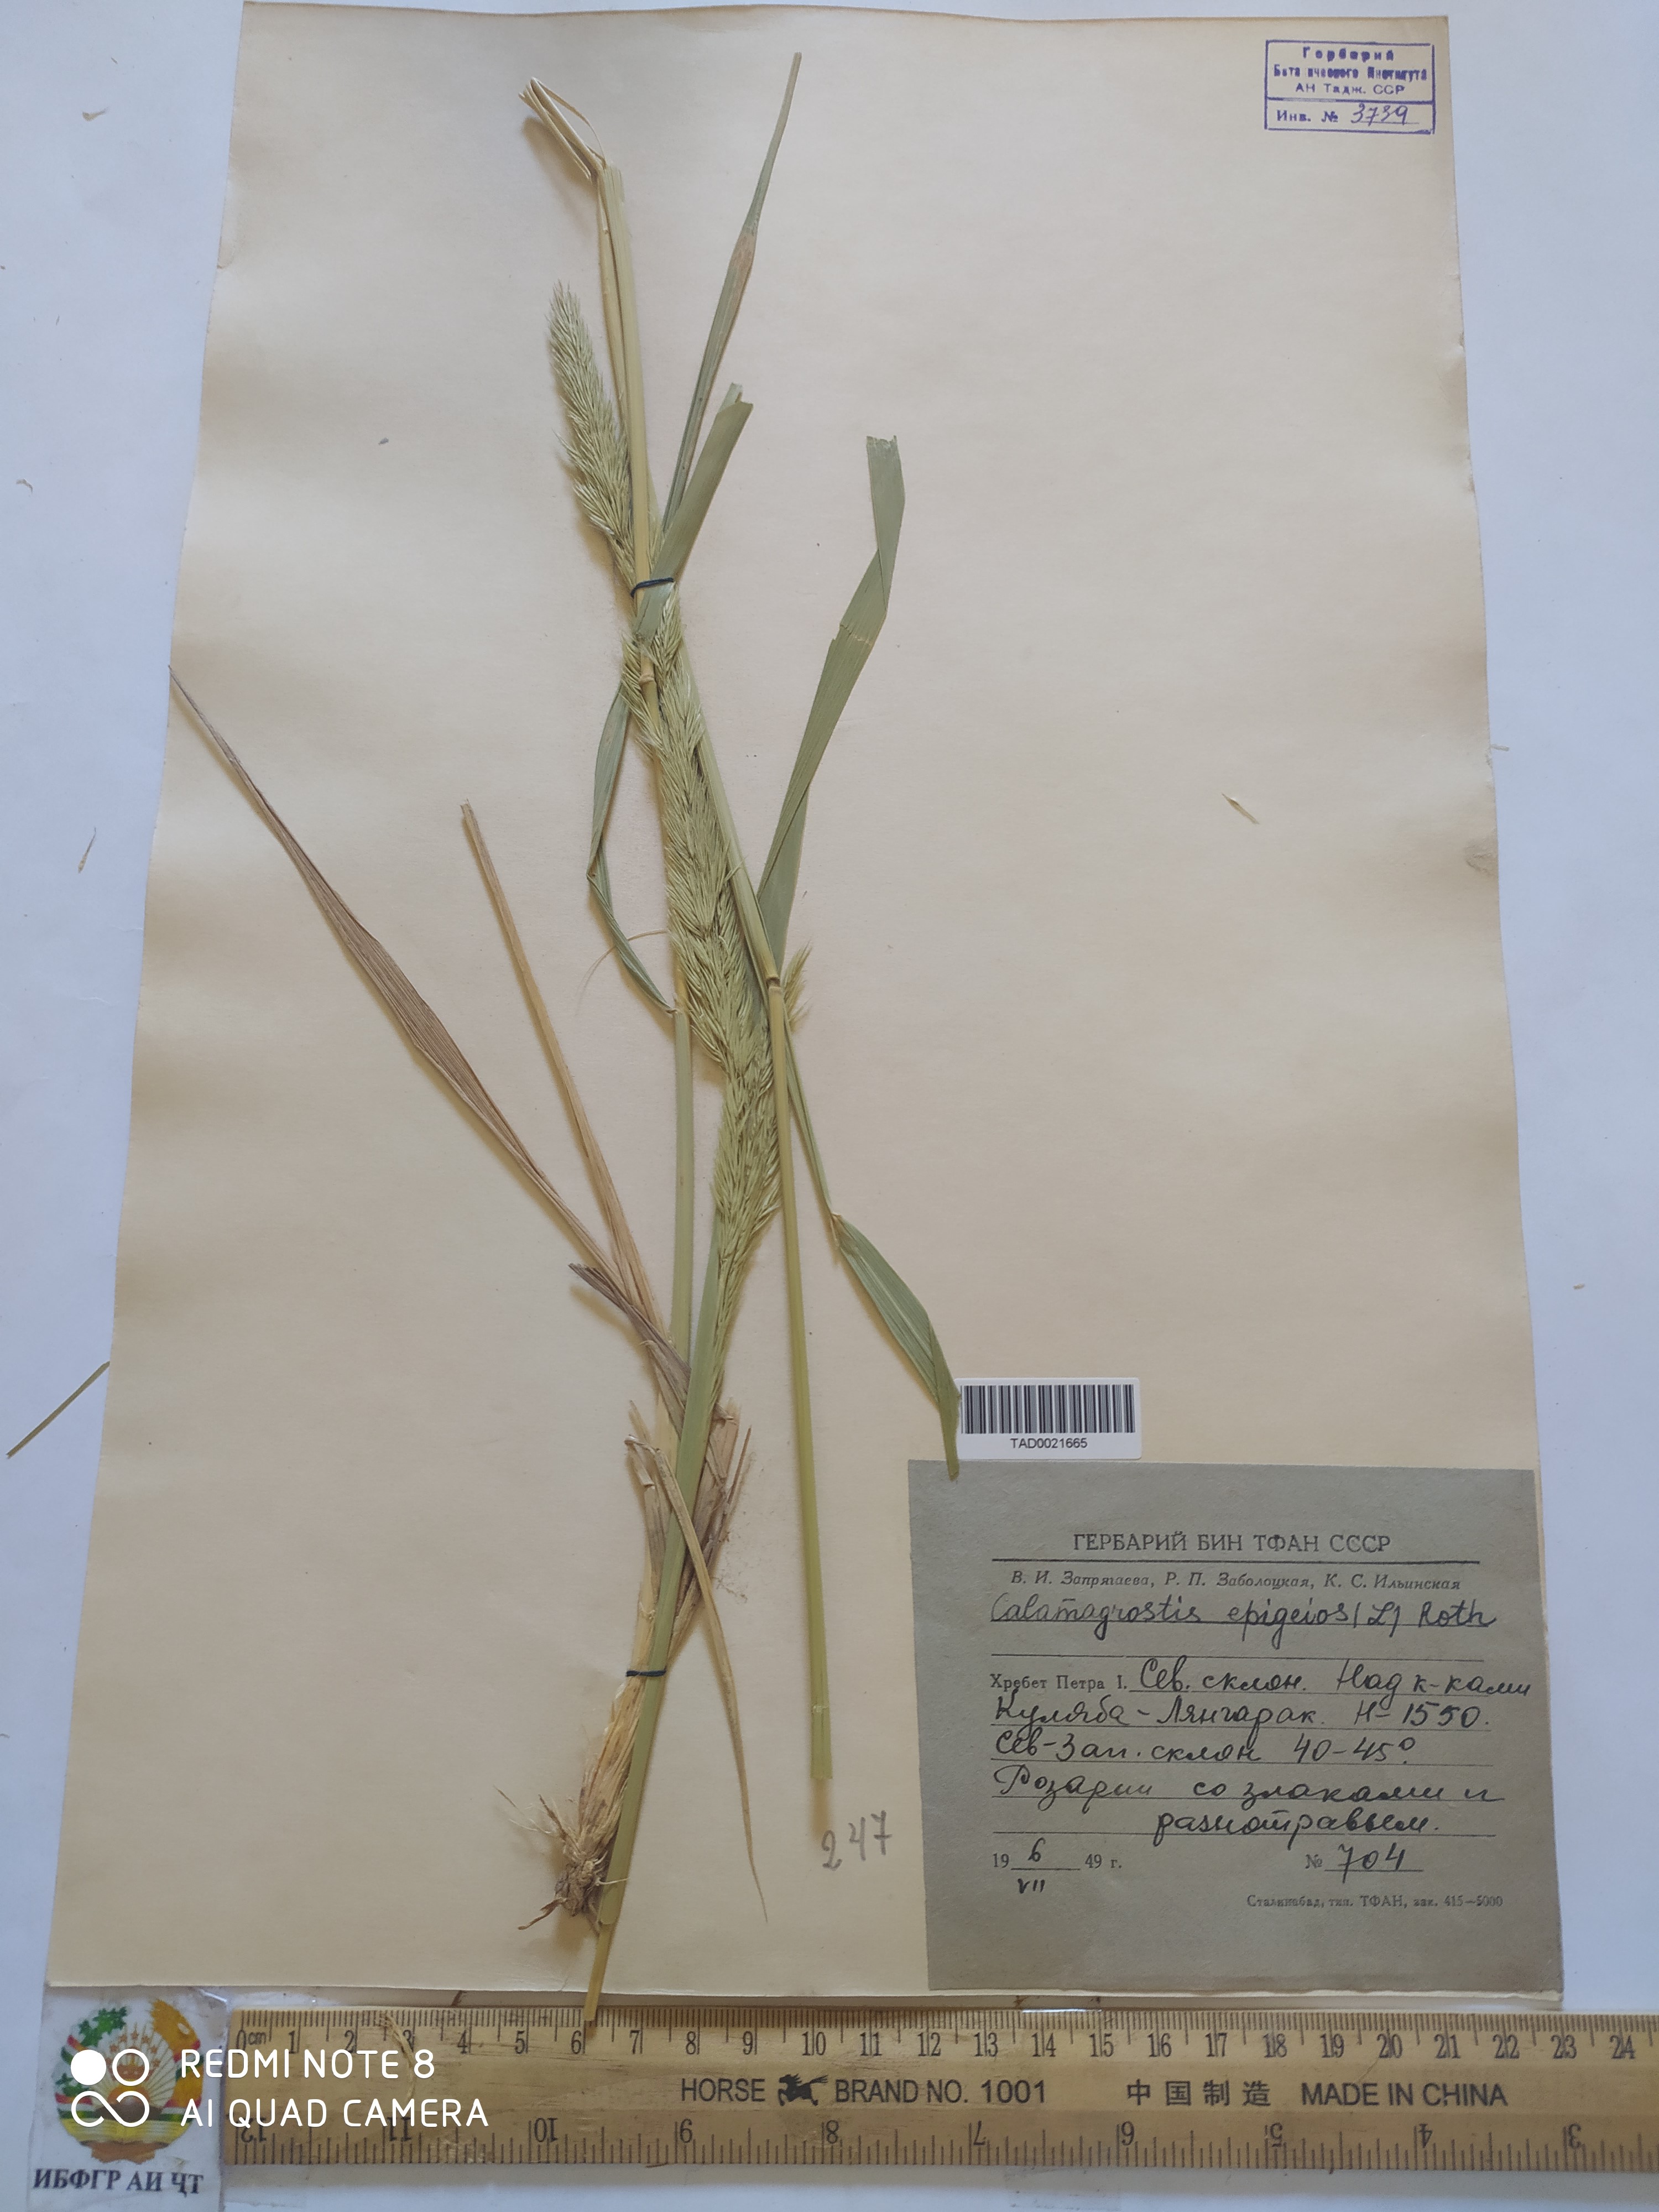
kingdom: Plantae
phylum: Tracheophyta
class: Liliopsida
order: Poales
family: Poaceae
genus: Calamagrostis
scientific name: Calamagrostis epigejos
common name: Wood small-reed
